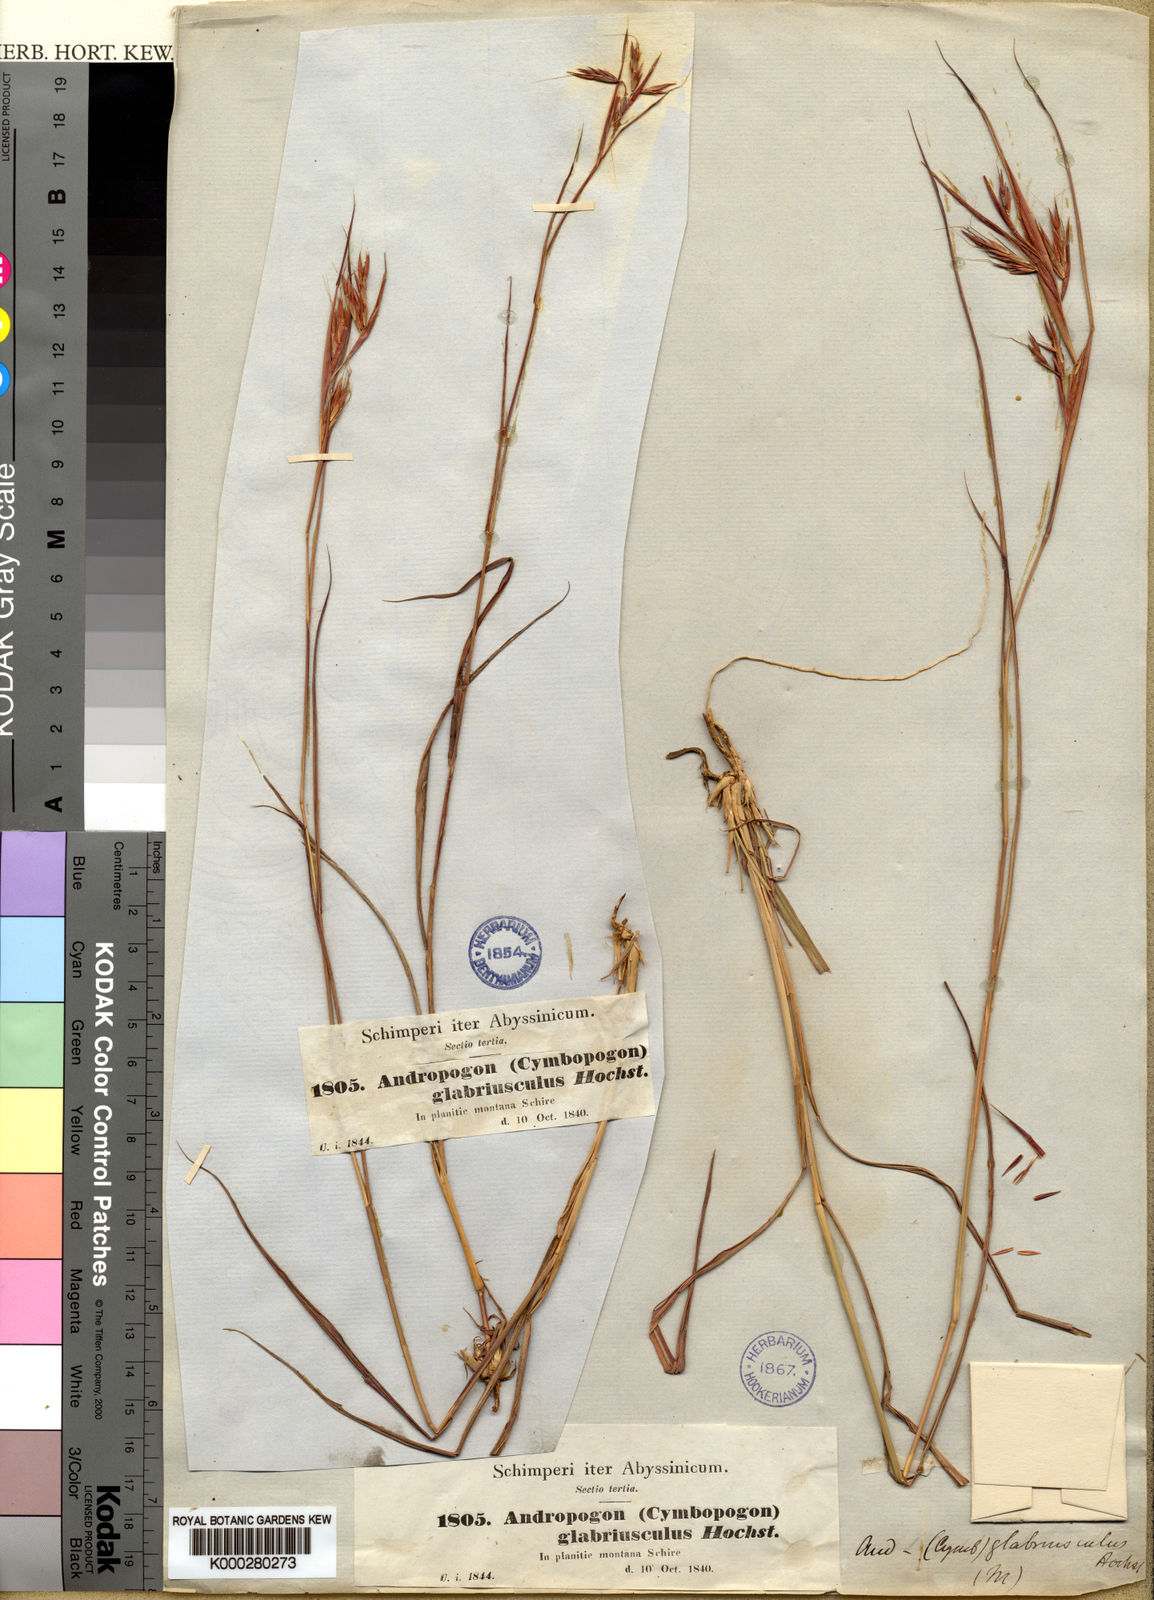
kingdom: Plantae
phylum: Tracheophyta
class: Liliopsida
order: Poales
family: Poaceae
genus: Hyparrhenia
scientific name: Hyparrhenia glabriuscula
